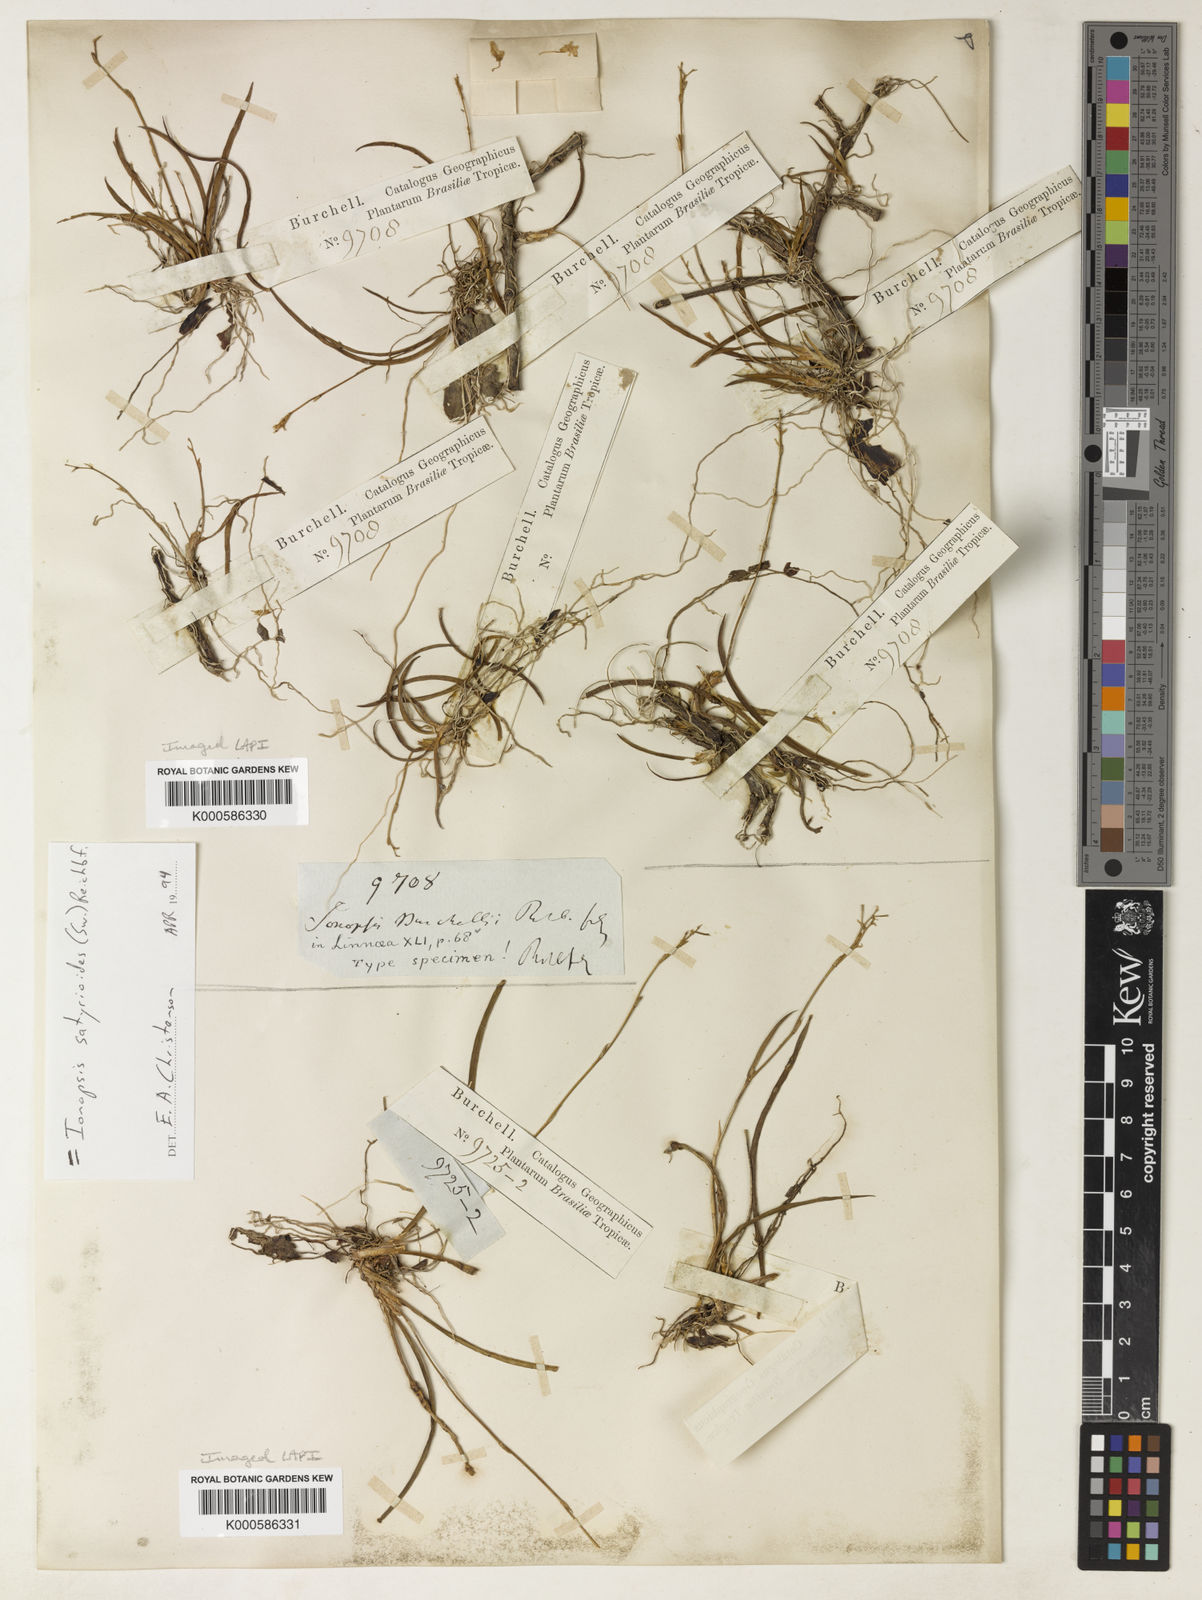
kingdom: Plantae
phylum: Tracheophyta
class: Liliopsida
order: Asparagales
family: Orchidaceae
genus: Ionopsis
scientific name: Ionopsis burchellii
